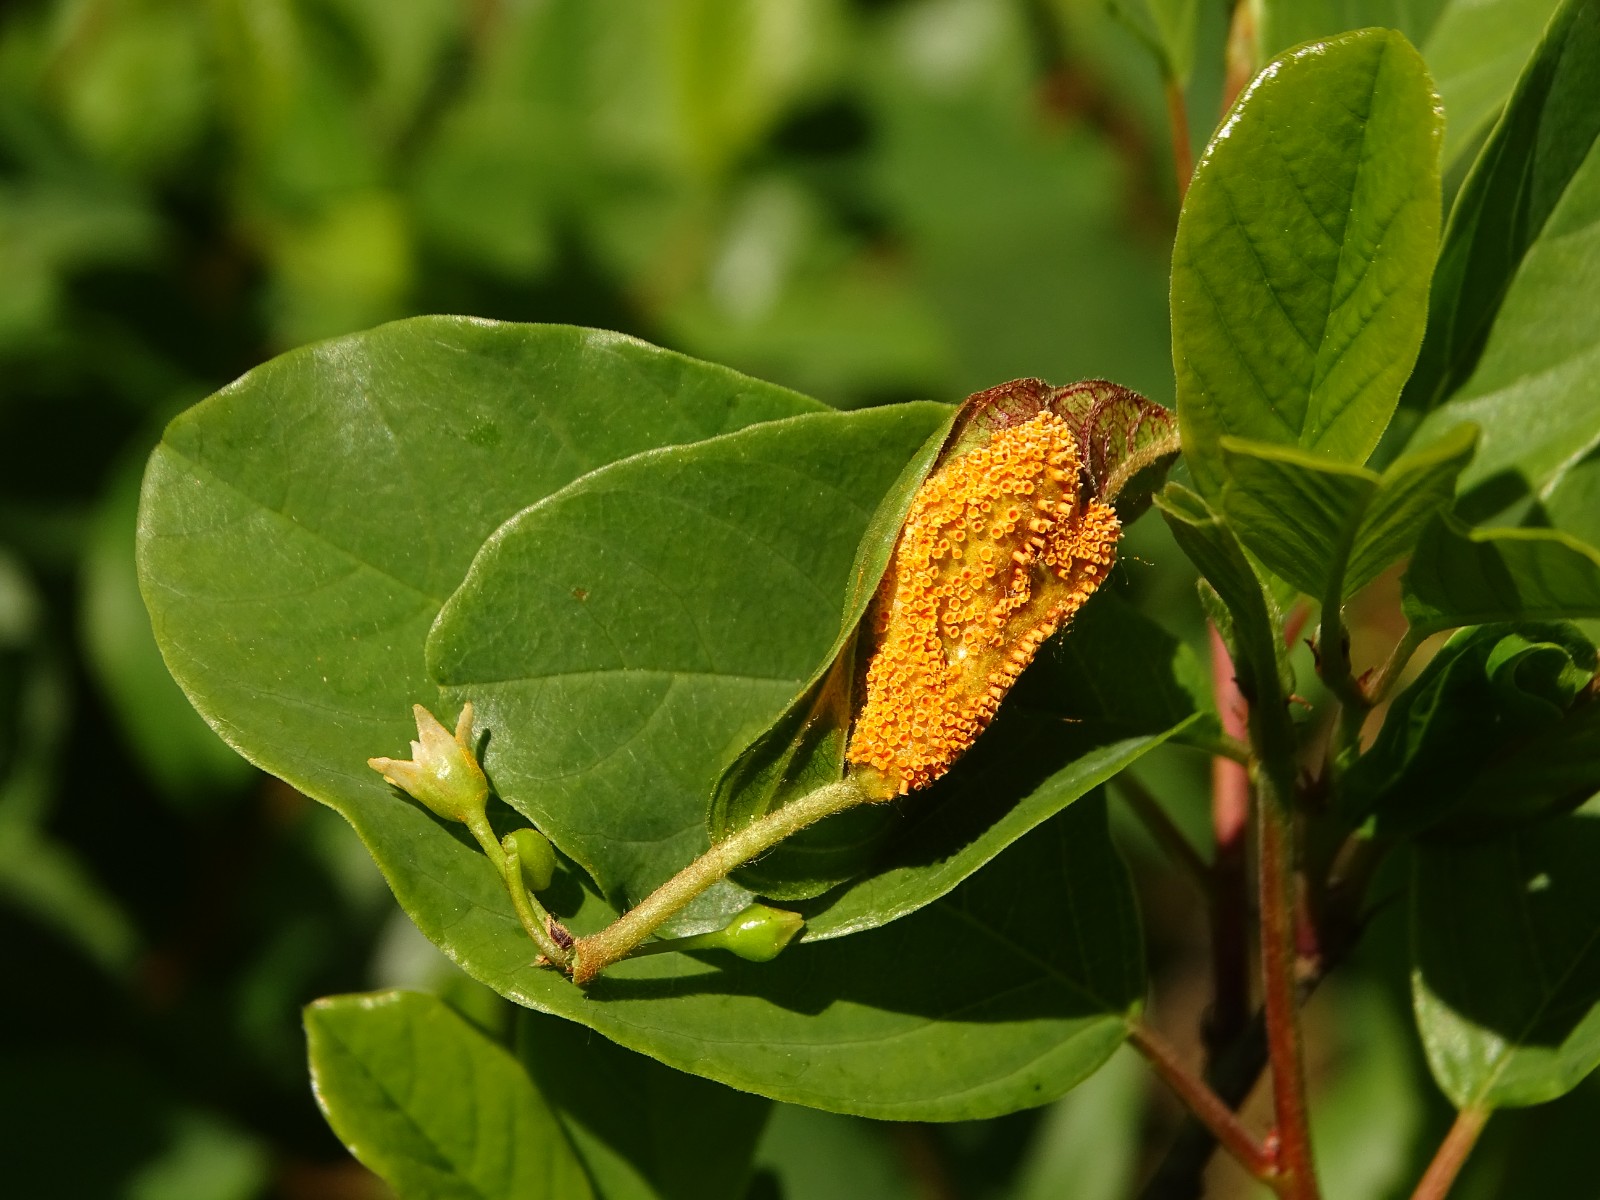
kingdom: Fungi
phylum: Basidiomycota
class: Pucciniomycetes
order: Pucciniales
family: Pucciniaceae
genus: Puccinia
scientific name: Puccinia coronata
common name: Crown rust
